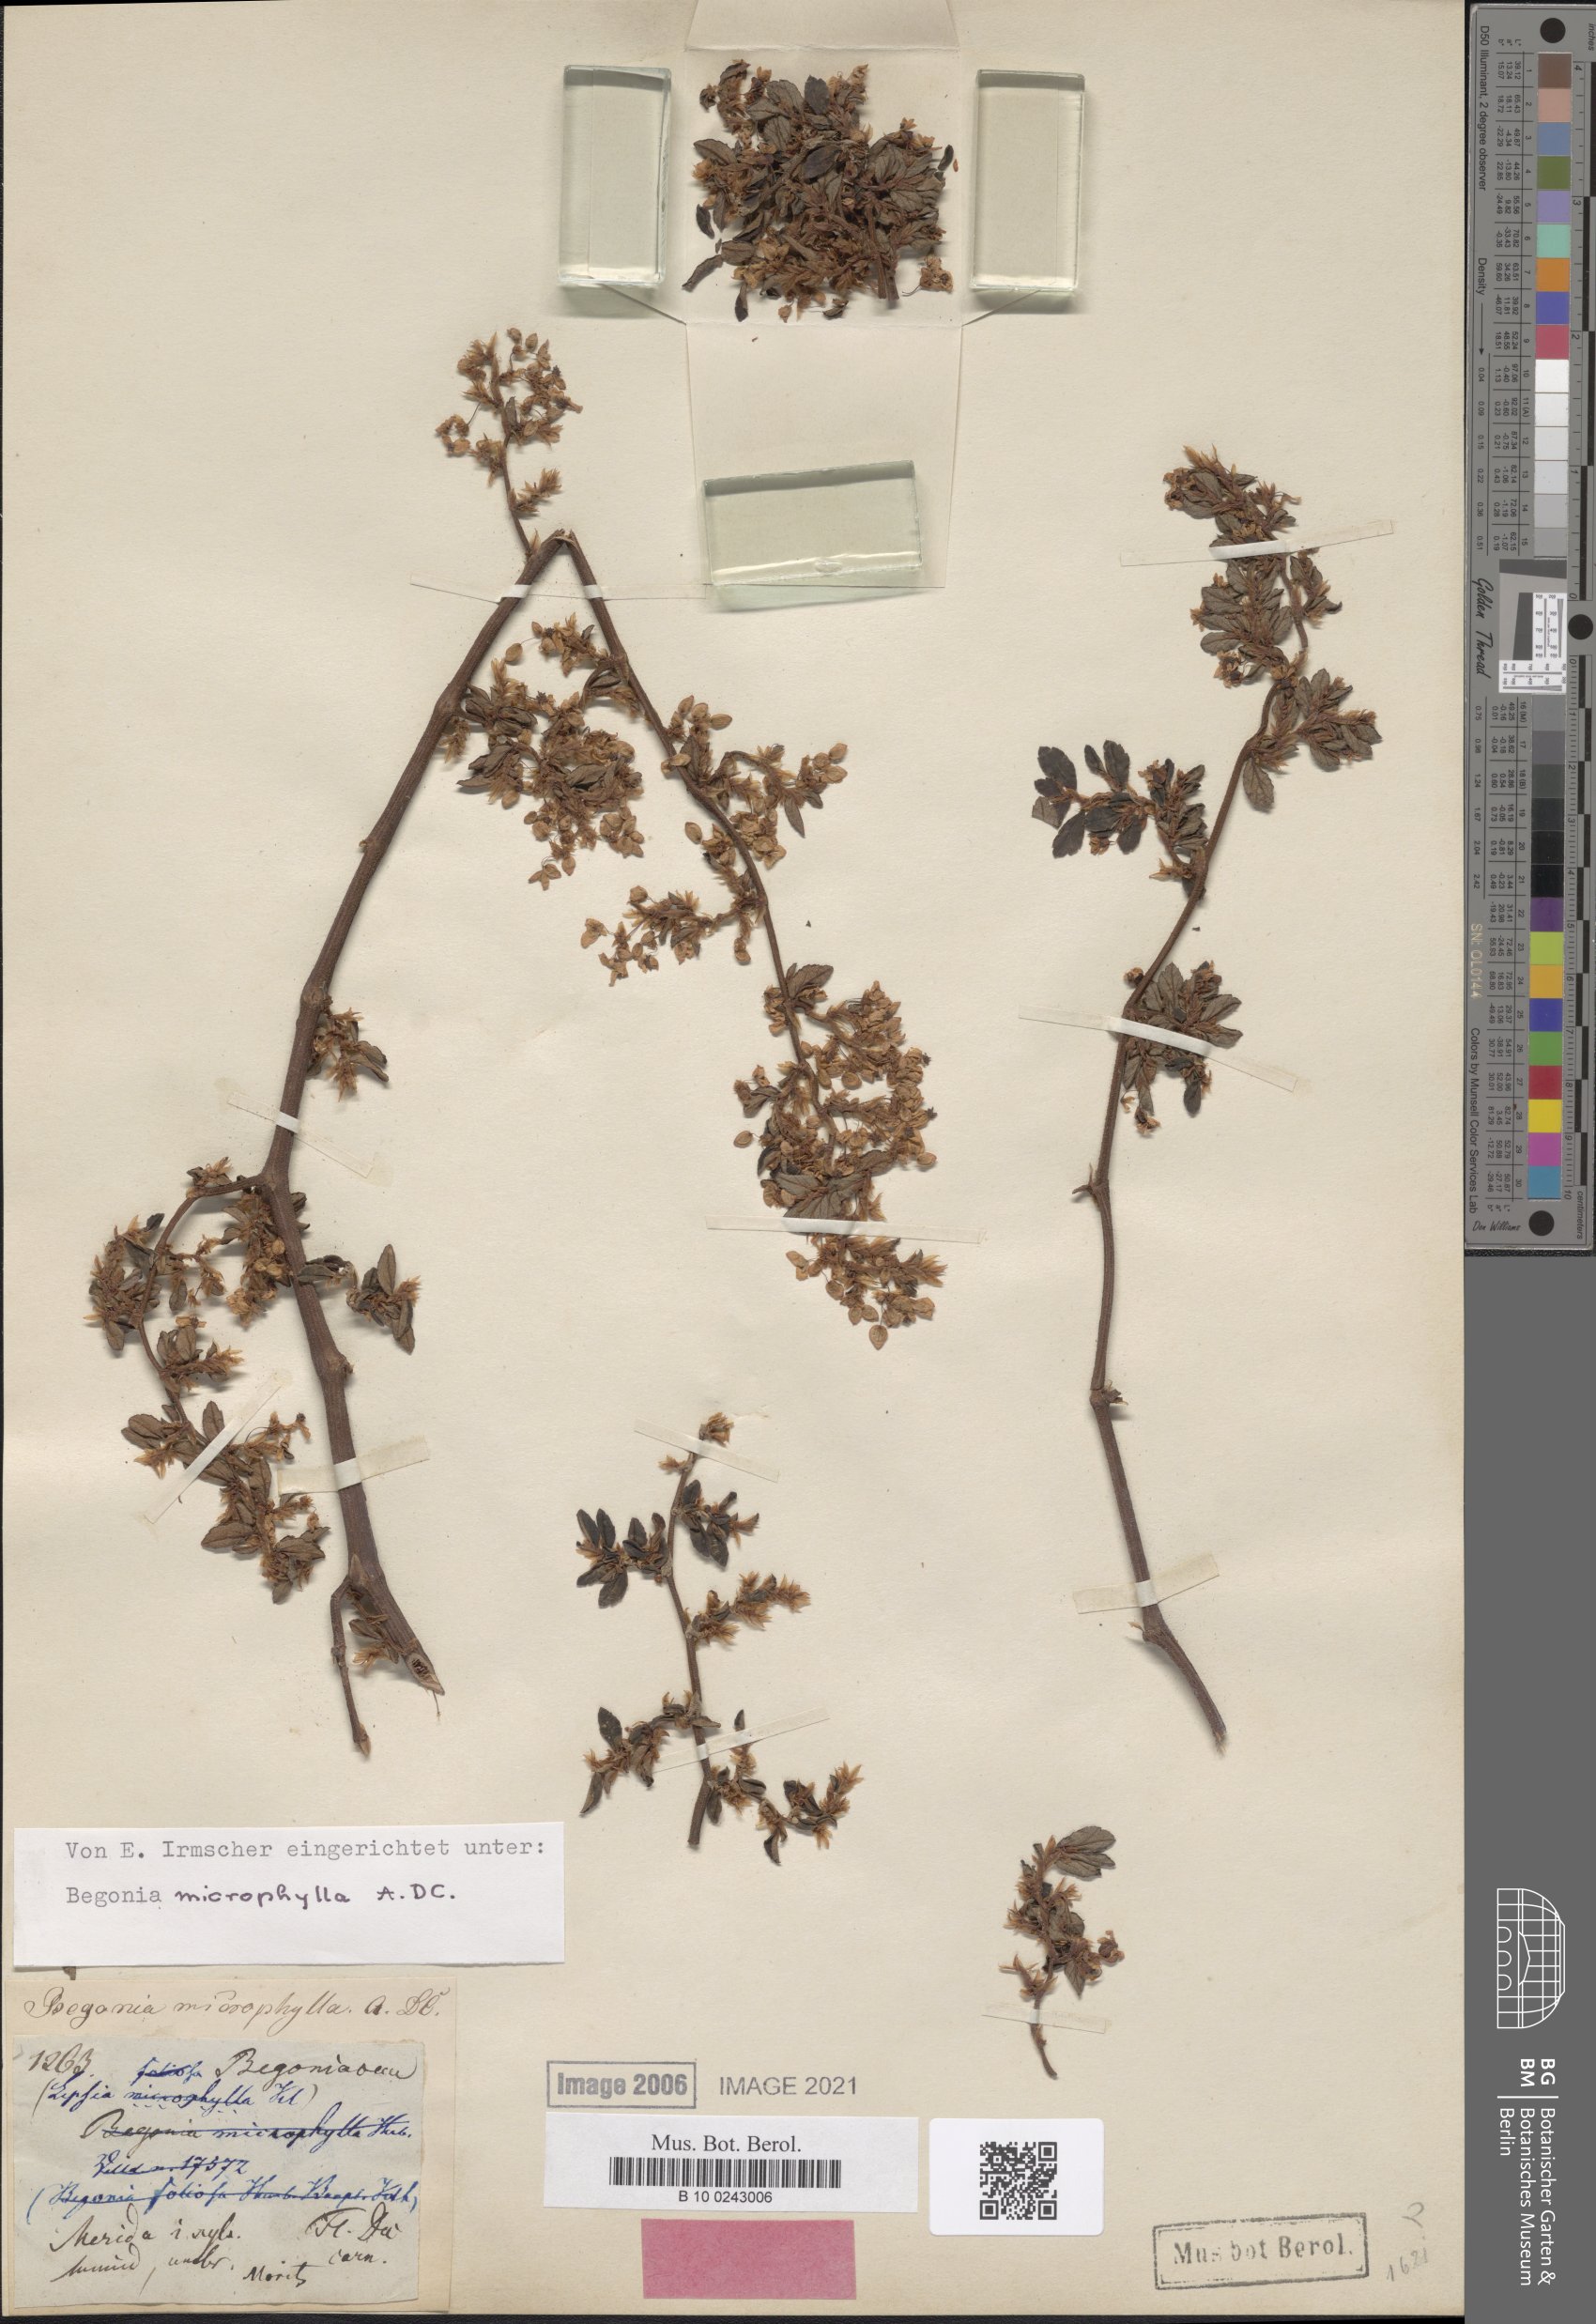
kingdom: Plantae
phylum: Tracheophyta
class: Magnoliopsida
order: Cucurbitales
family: Begoniaceae
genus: Begonia
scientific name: Begonia foliosa
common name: Fern begonia
